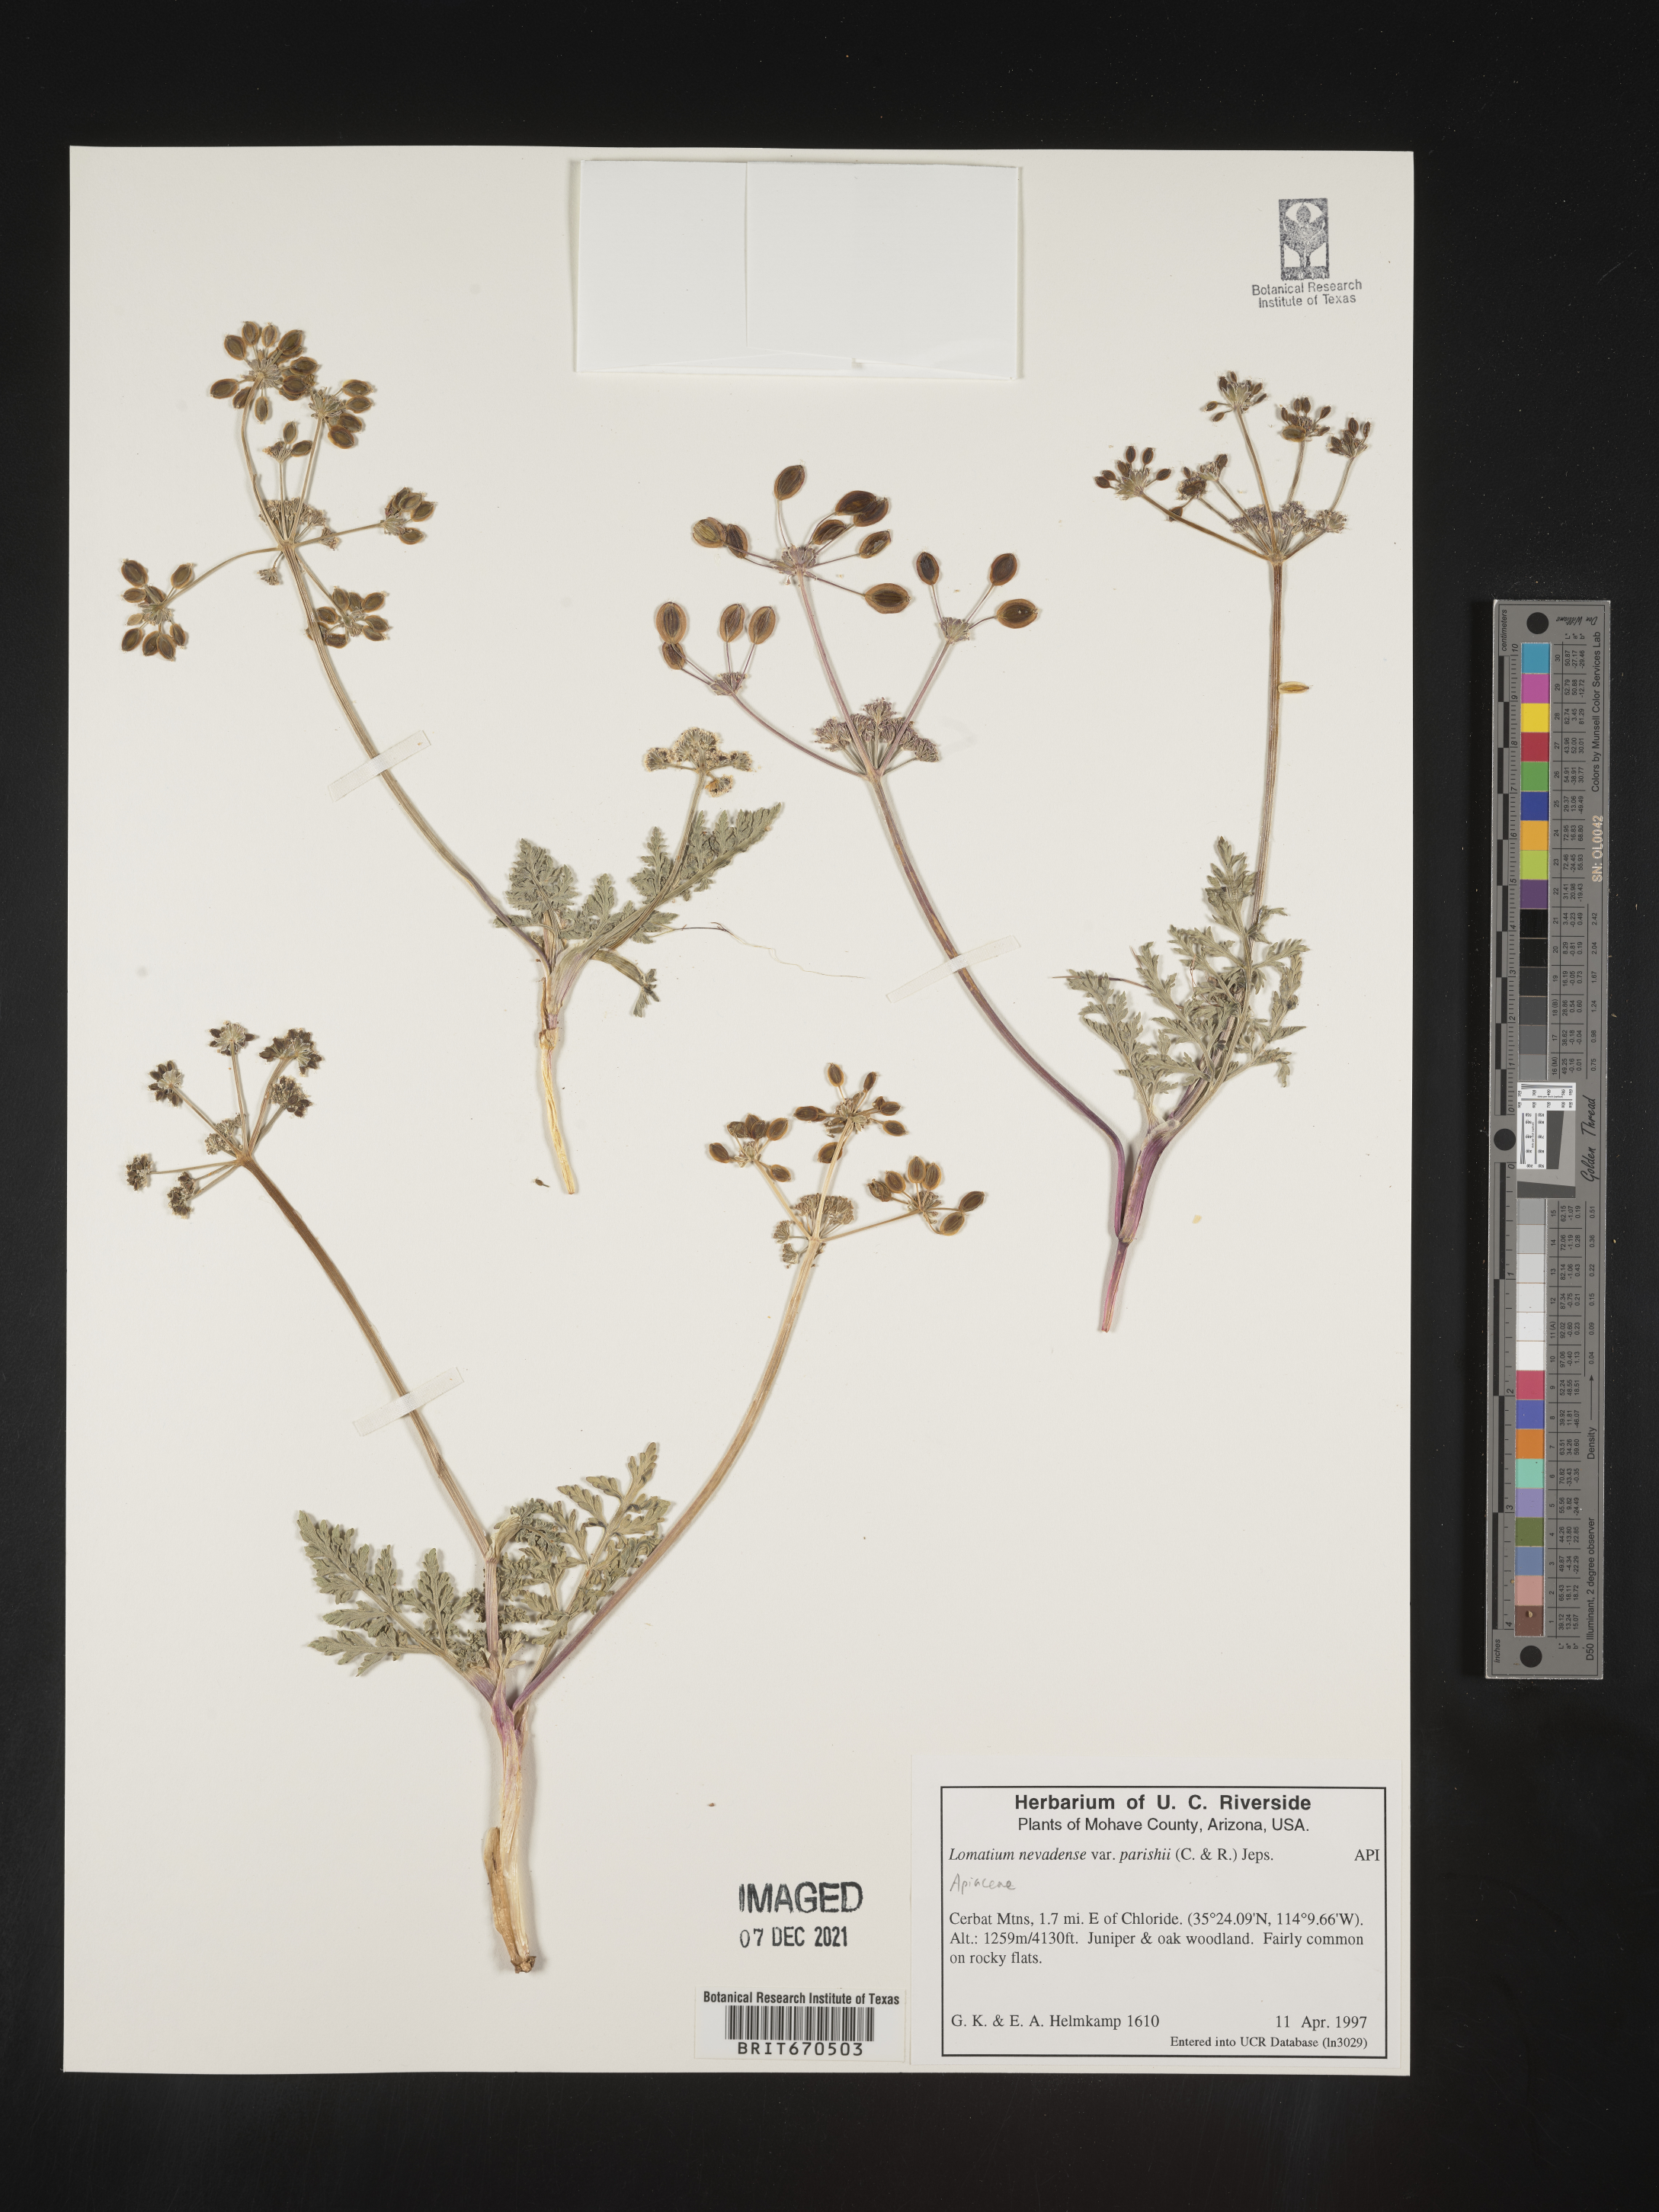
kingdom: Plantae
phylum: Tracheophyta
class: Magnoliopsida
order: Apiales
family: Apiaceae
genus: Lomatium
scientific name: Lomatium nevadense
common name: Nevada lomatium
